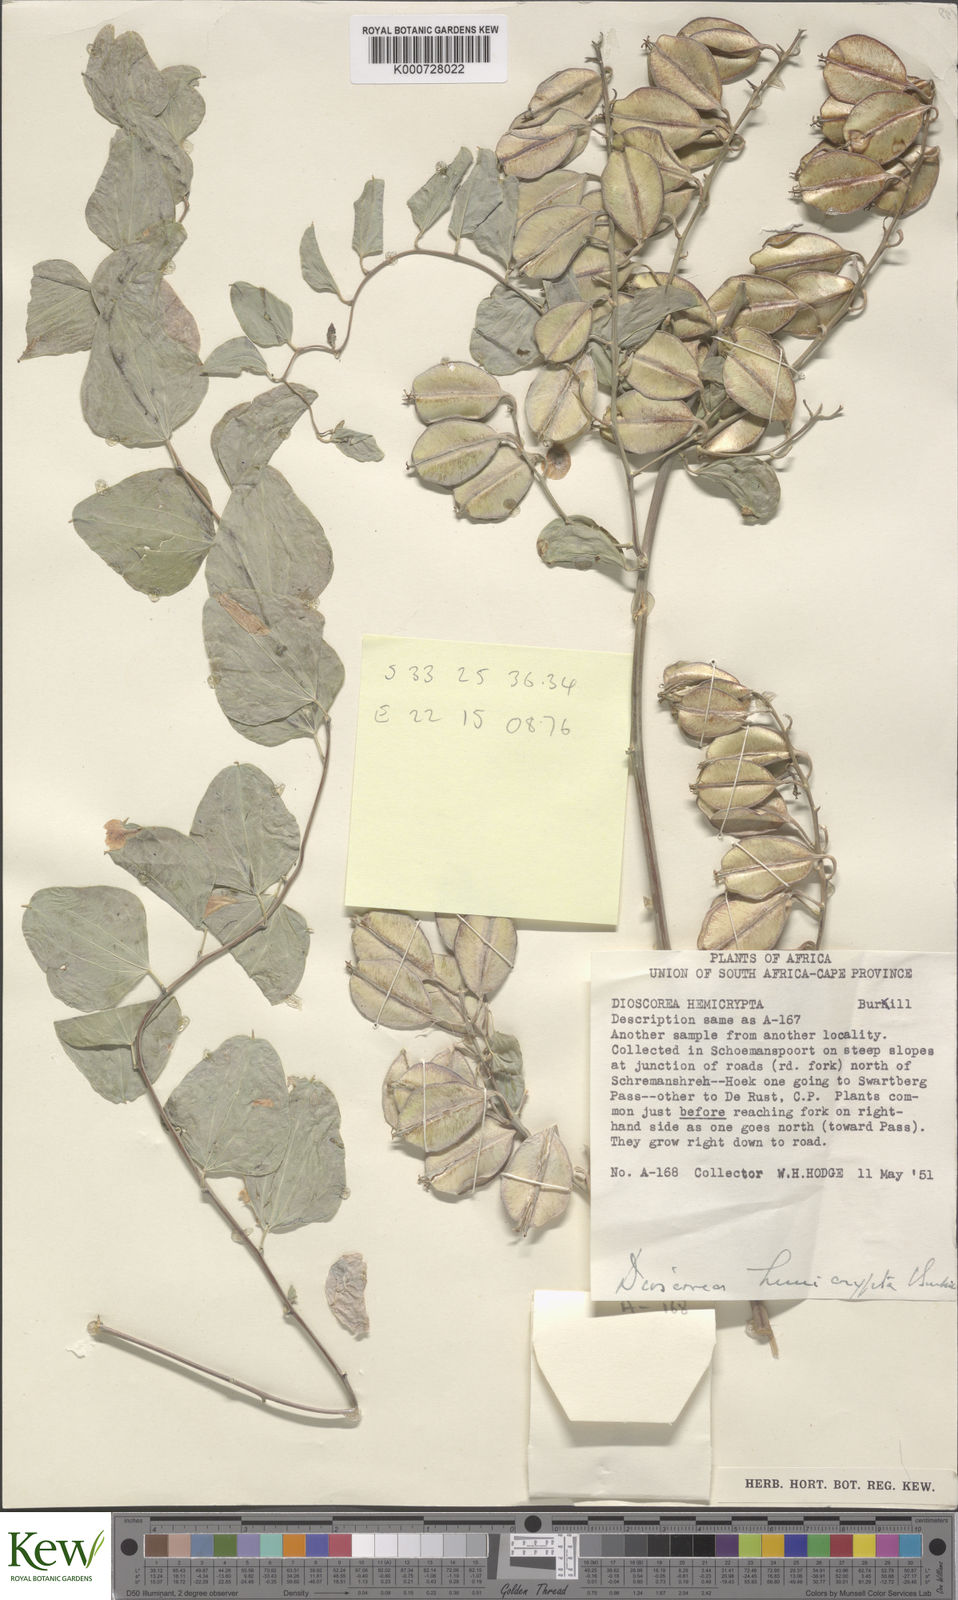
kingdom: Plantae
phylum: Tracheophyta
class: Liliopsida
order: Dioscoreales
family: Dioscoreaceae
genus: Dioscorea
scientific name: Dioscorea hemicrypta
